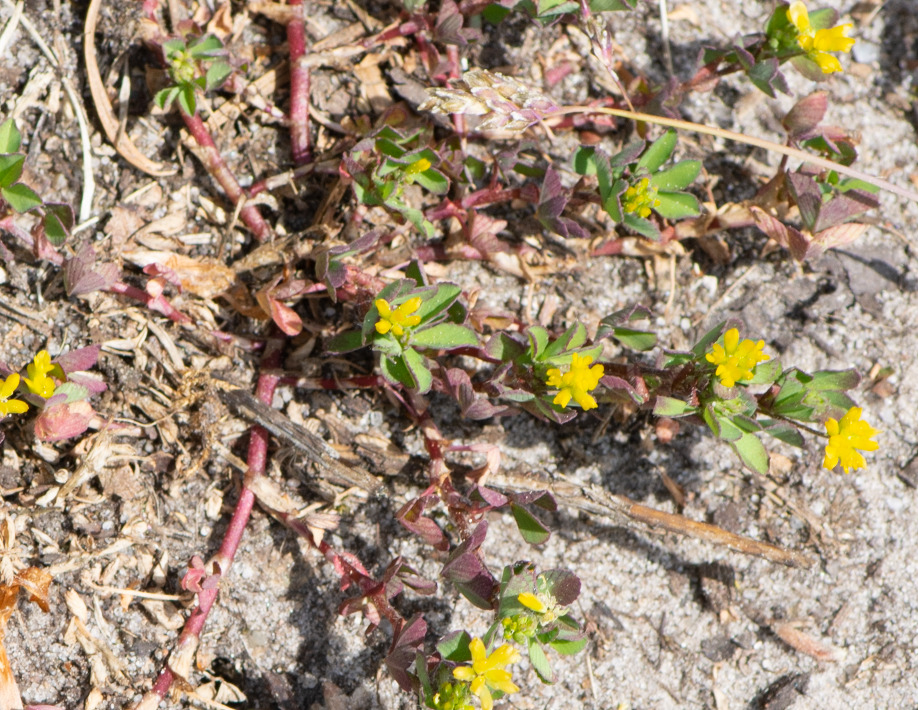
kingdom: Plantae
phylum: Tracheophyta
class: Magnoliopsida
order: Fabales
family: Fabaceae
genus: Trifolium
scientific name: Trifolium dubium
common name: Fin kløver
